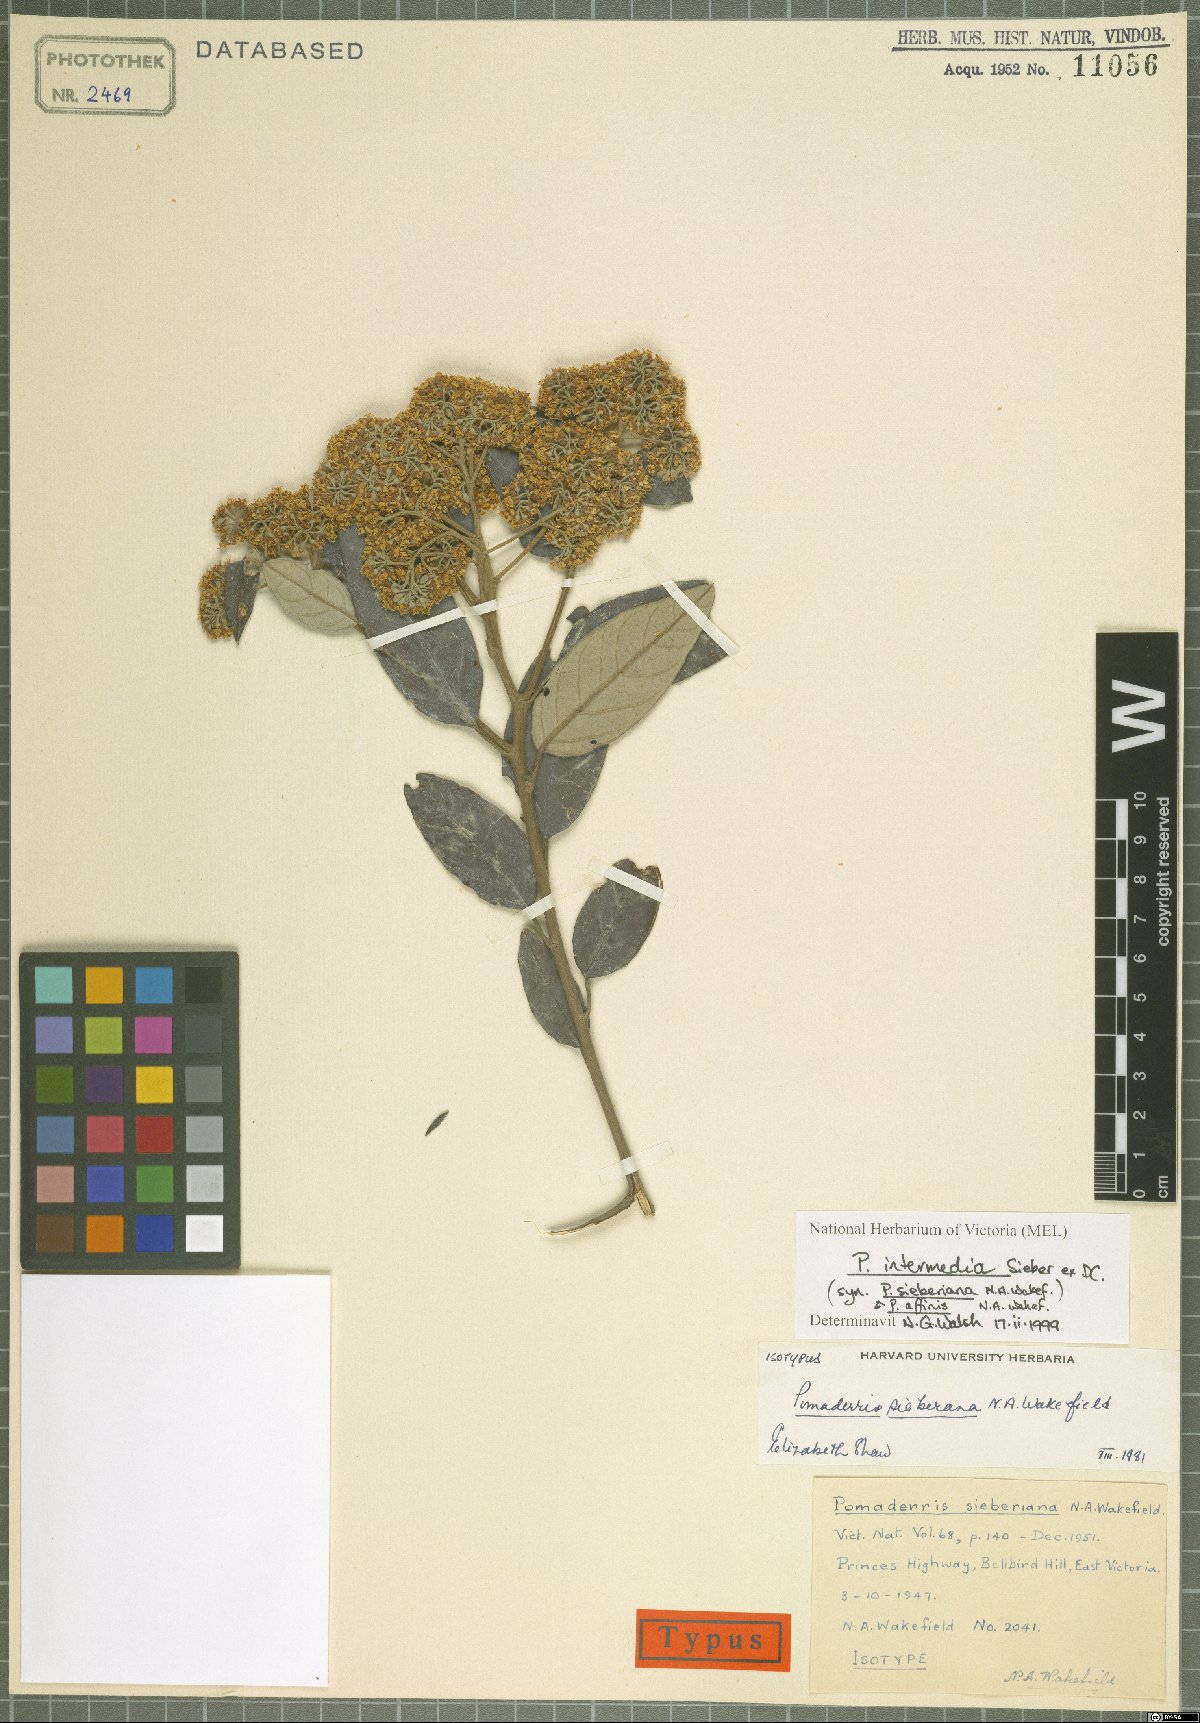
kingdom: Plantae
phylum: Tracheophyta
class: Magnoliopsida
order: Rosales
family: Rhamnaceae
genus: Pomaderris
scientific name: Pomaderris intermedia
